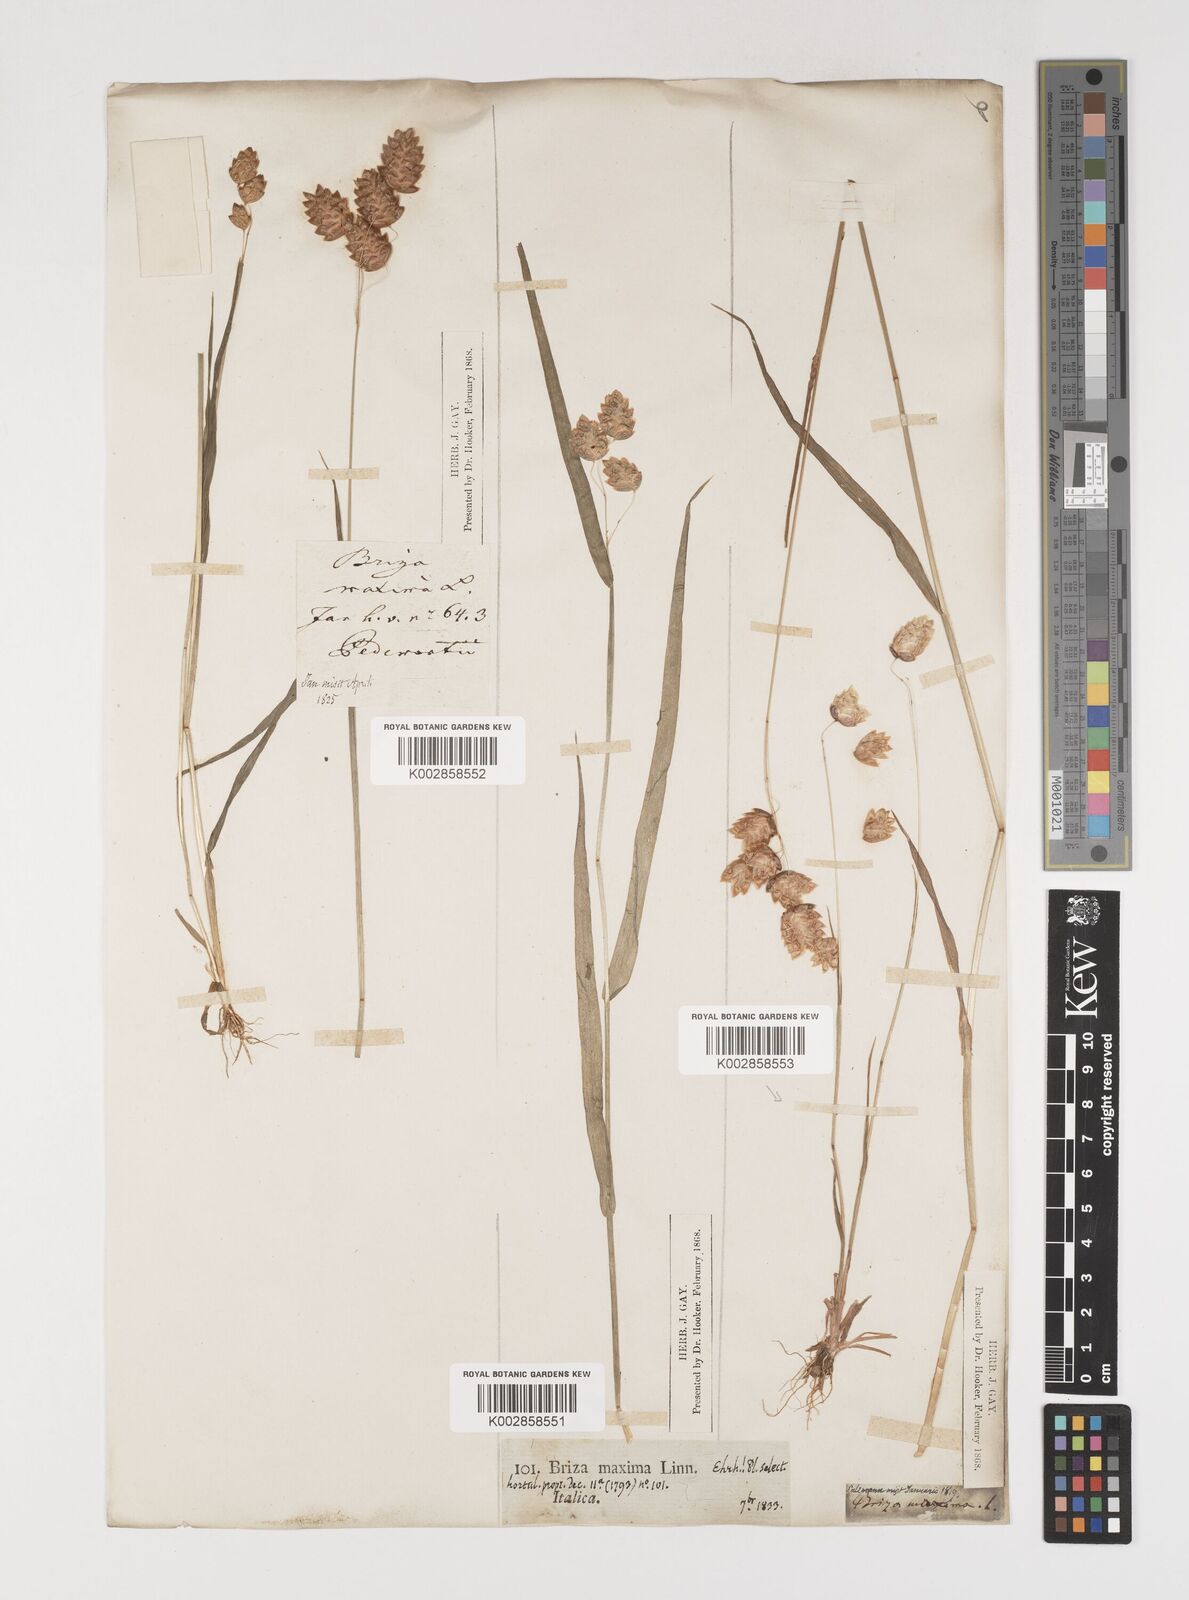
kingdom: Plantae
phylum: Tracheophyta
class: Liliopsida
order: Poales
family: Poaceae
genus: Briza
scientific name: Briza maxima
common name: Big quakinggrass
